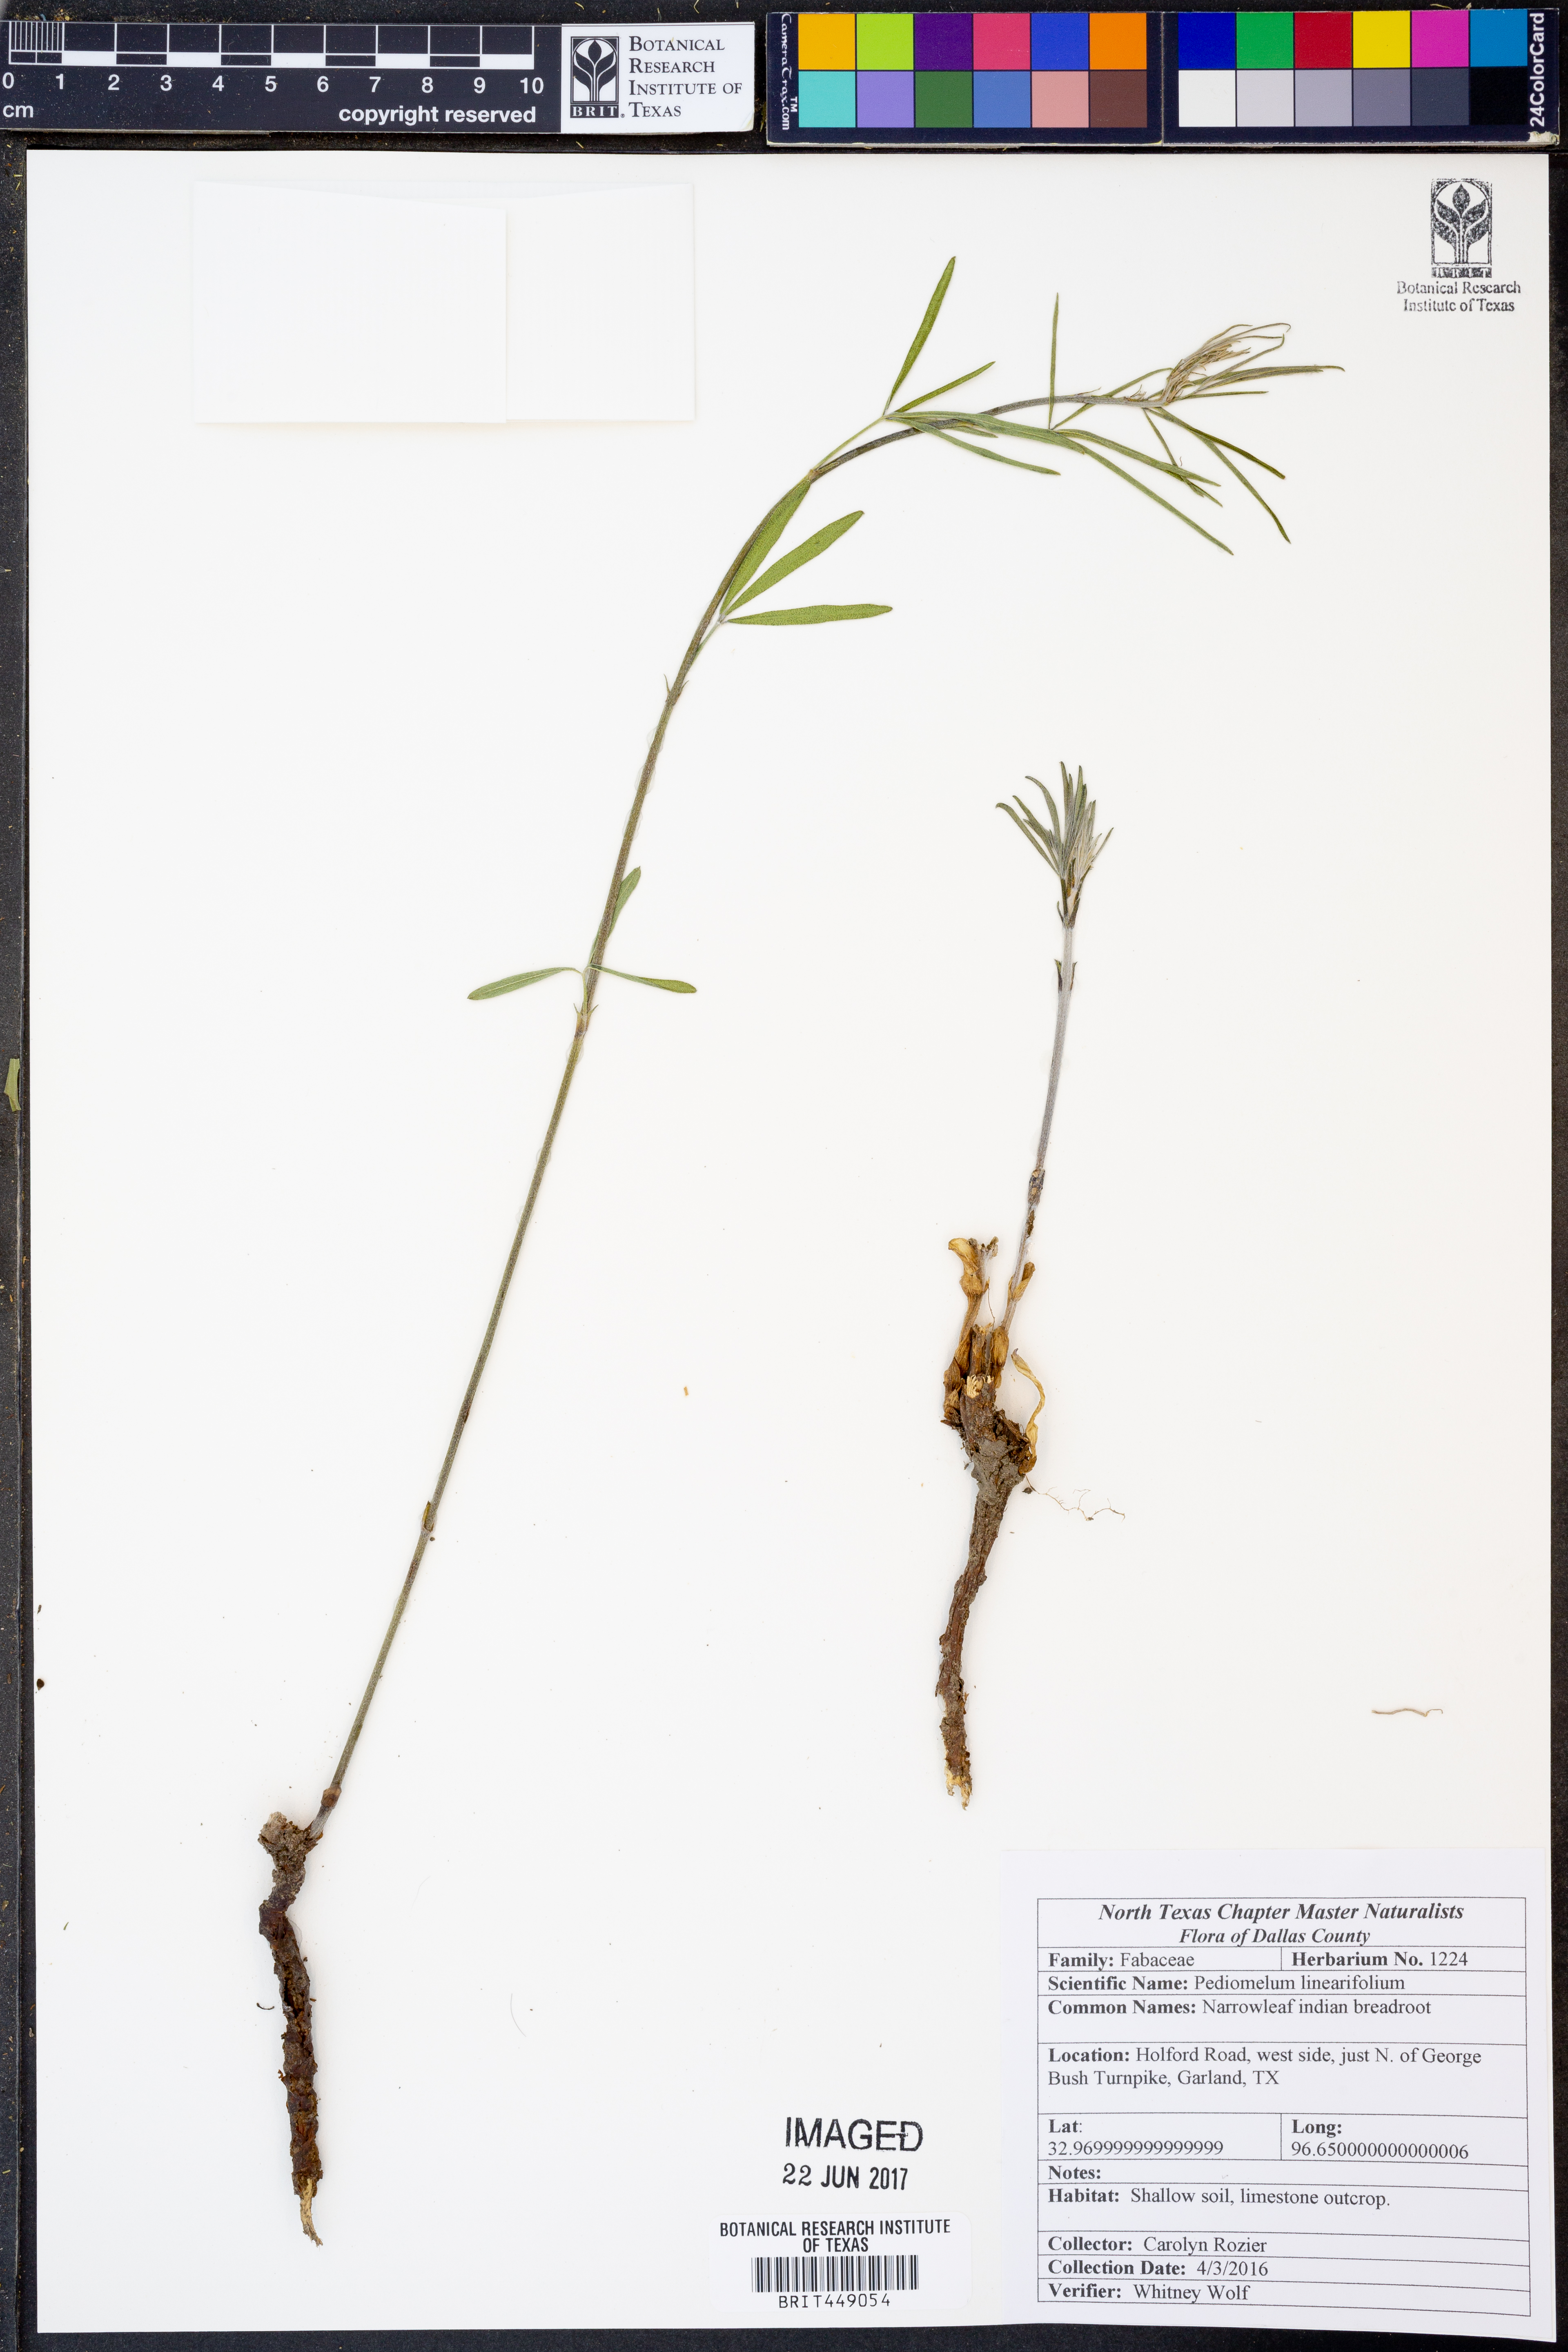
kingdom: Plantae
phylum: Tracheophyta
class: Magnoliopsida
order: Fabales
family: Fabaceae
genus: Pediomelum
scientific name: Pediomelum linearifolium
